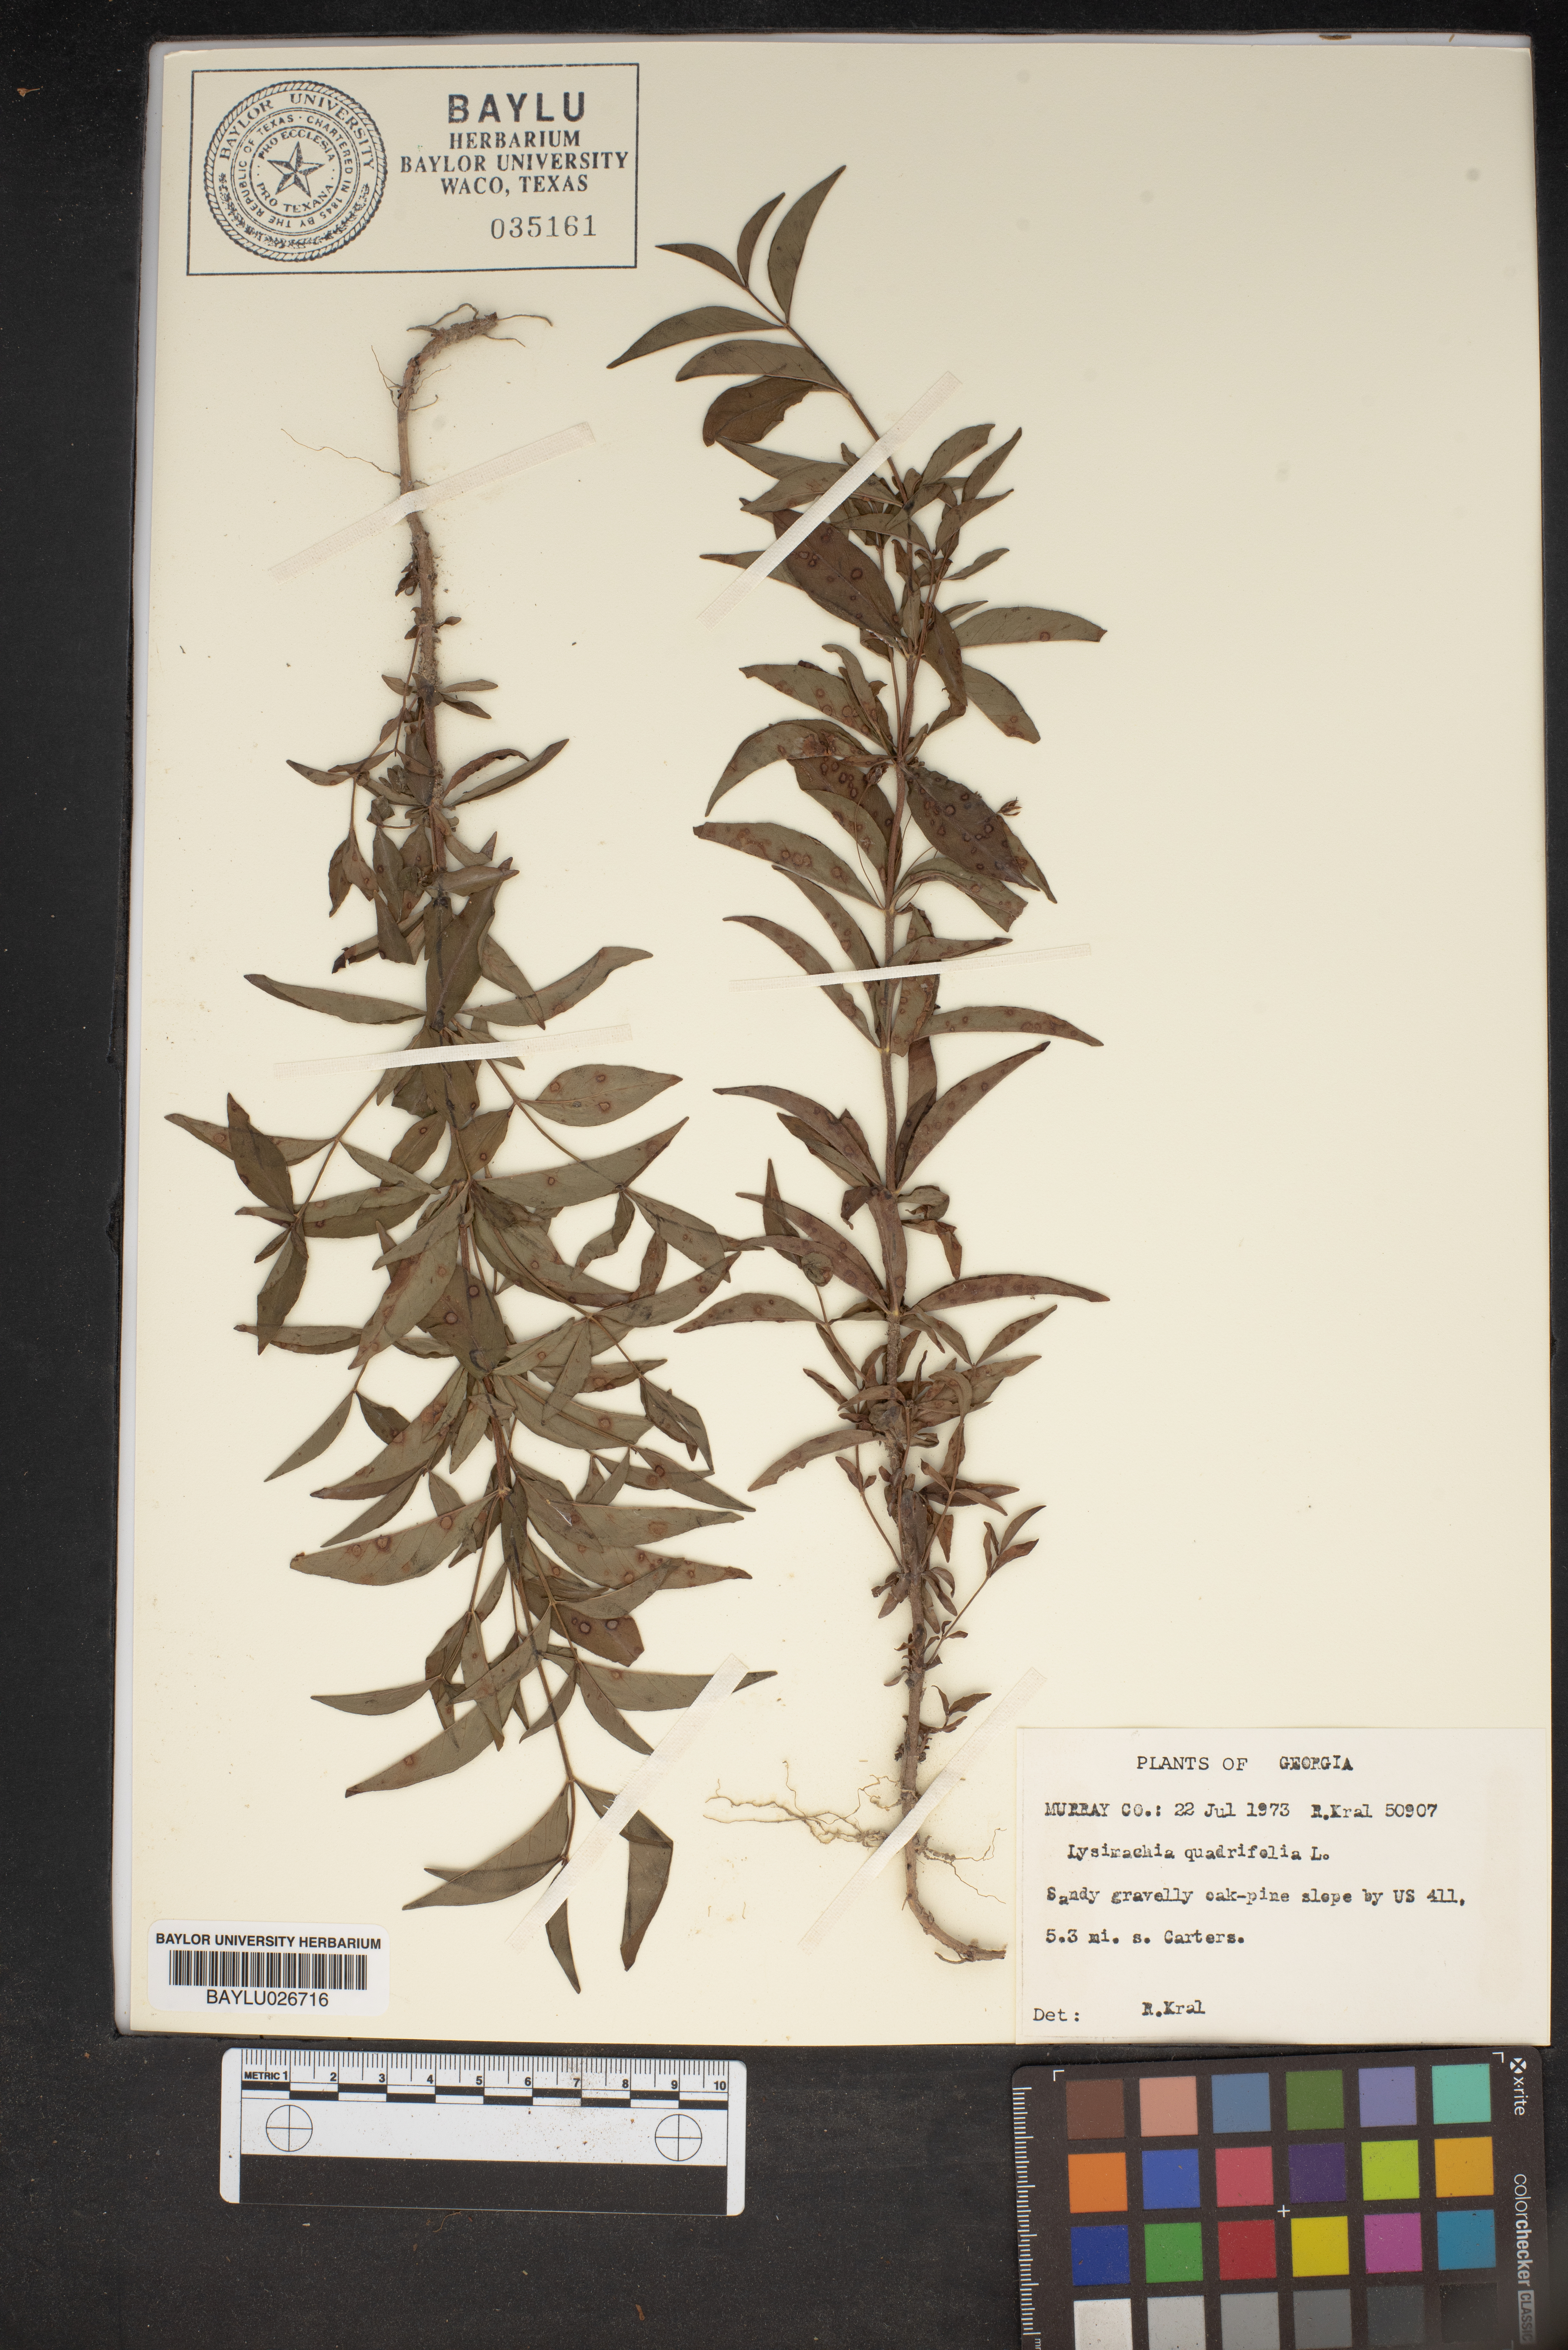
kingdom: Plantae
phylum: Tracheophyta
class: Magnoliopsida
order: Ericales
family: Primulaceae
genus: Lysimachia
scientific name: Lysimachia quadrifolia
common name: Whorled loosestrife
